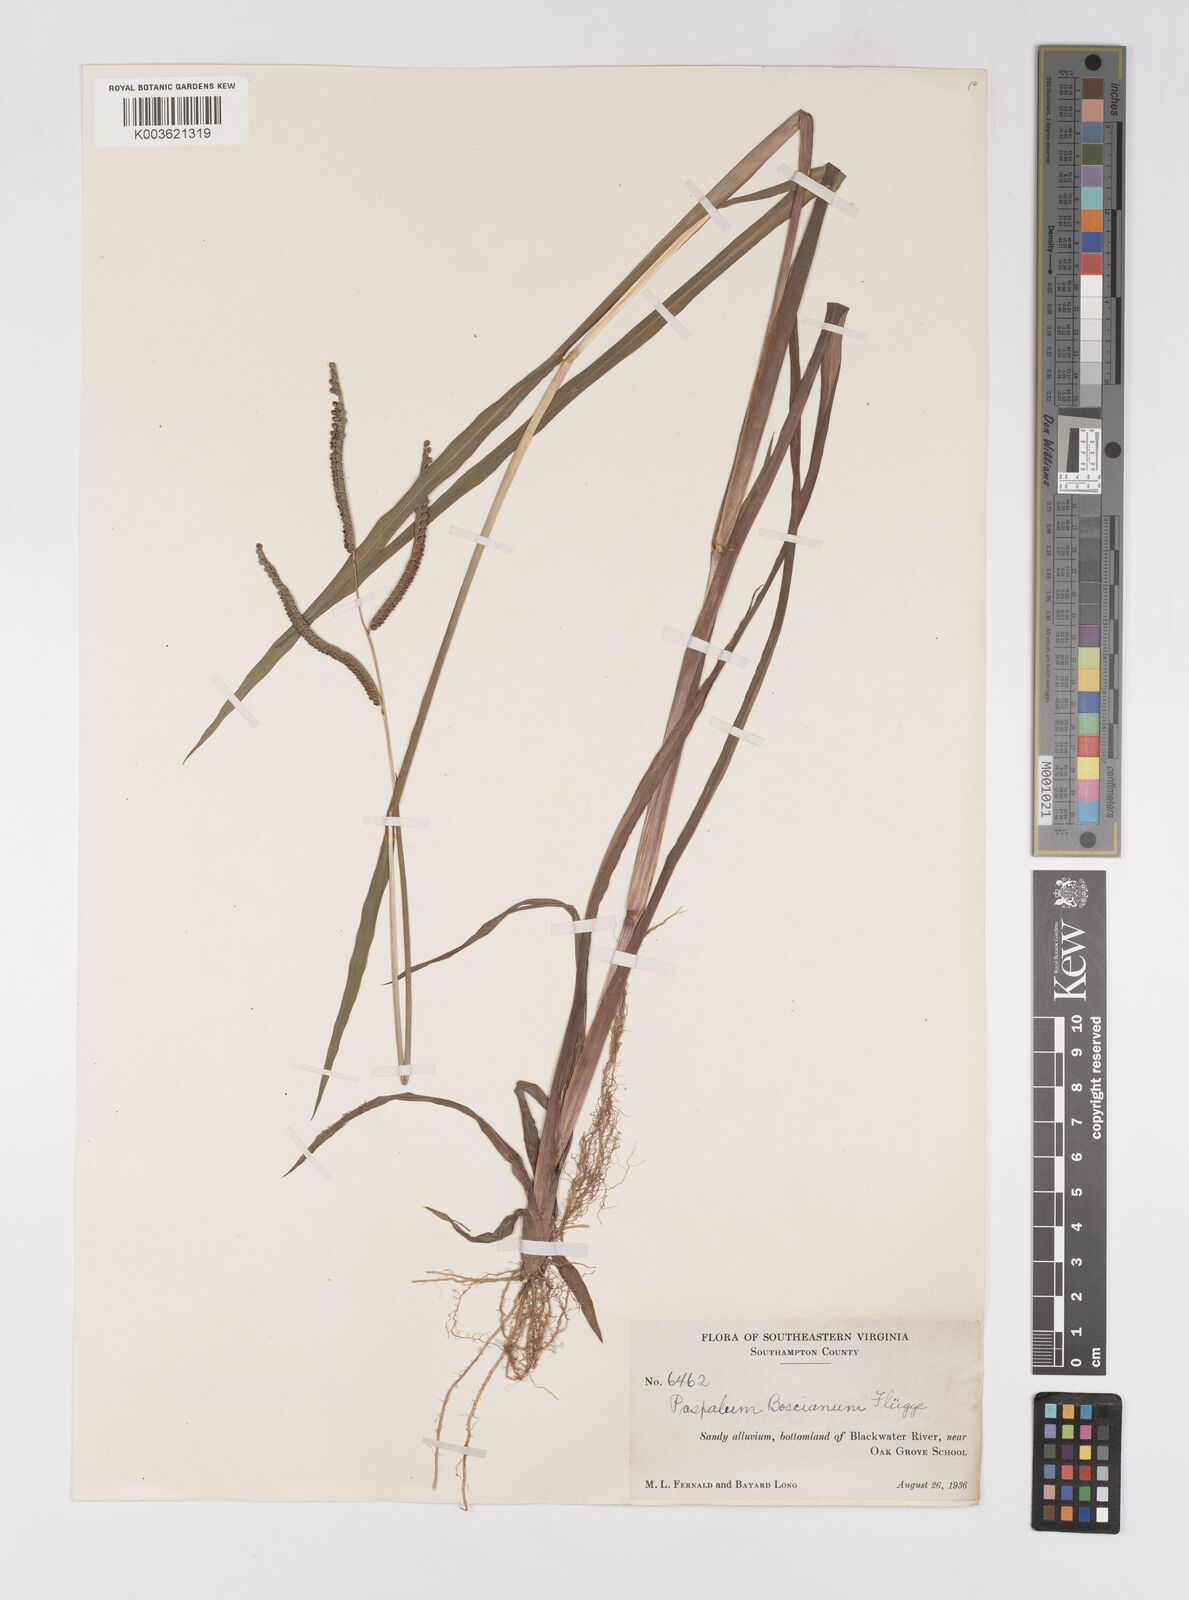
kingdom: Plantae
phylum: Tracheophyta
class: Liliopsida
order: Poales
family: Poaceae
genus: Paspalum
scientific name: Paspalum scrobiculatum
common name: Kodo millet
